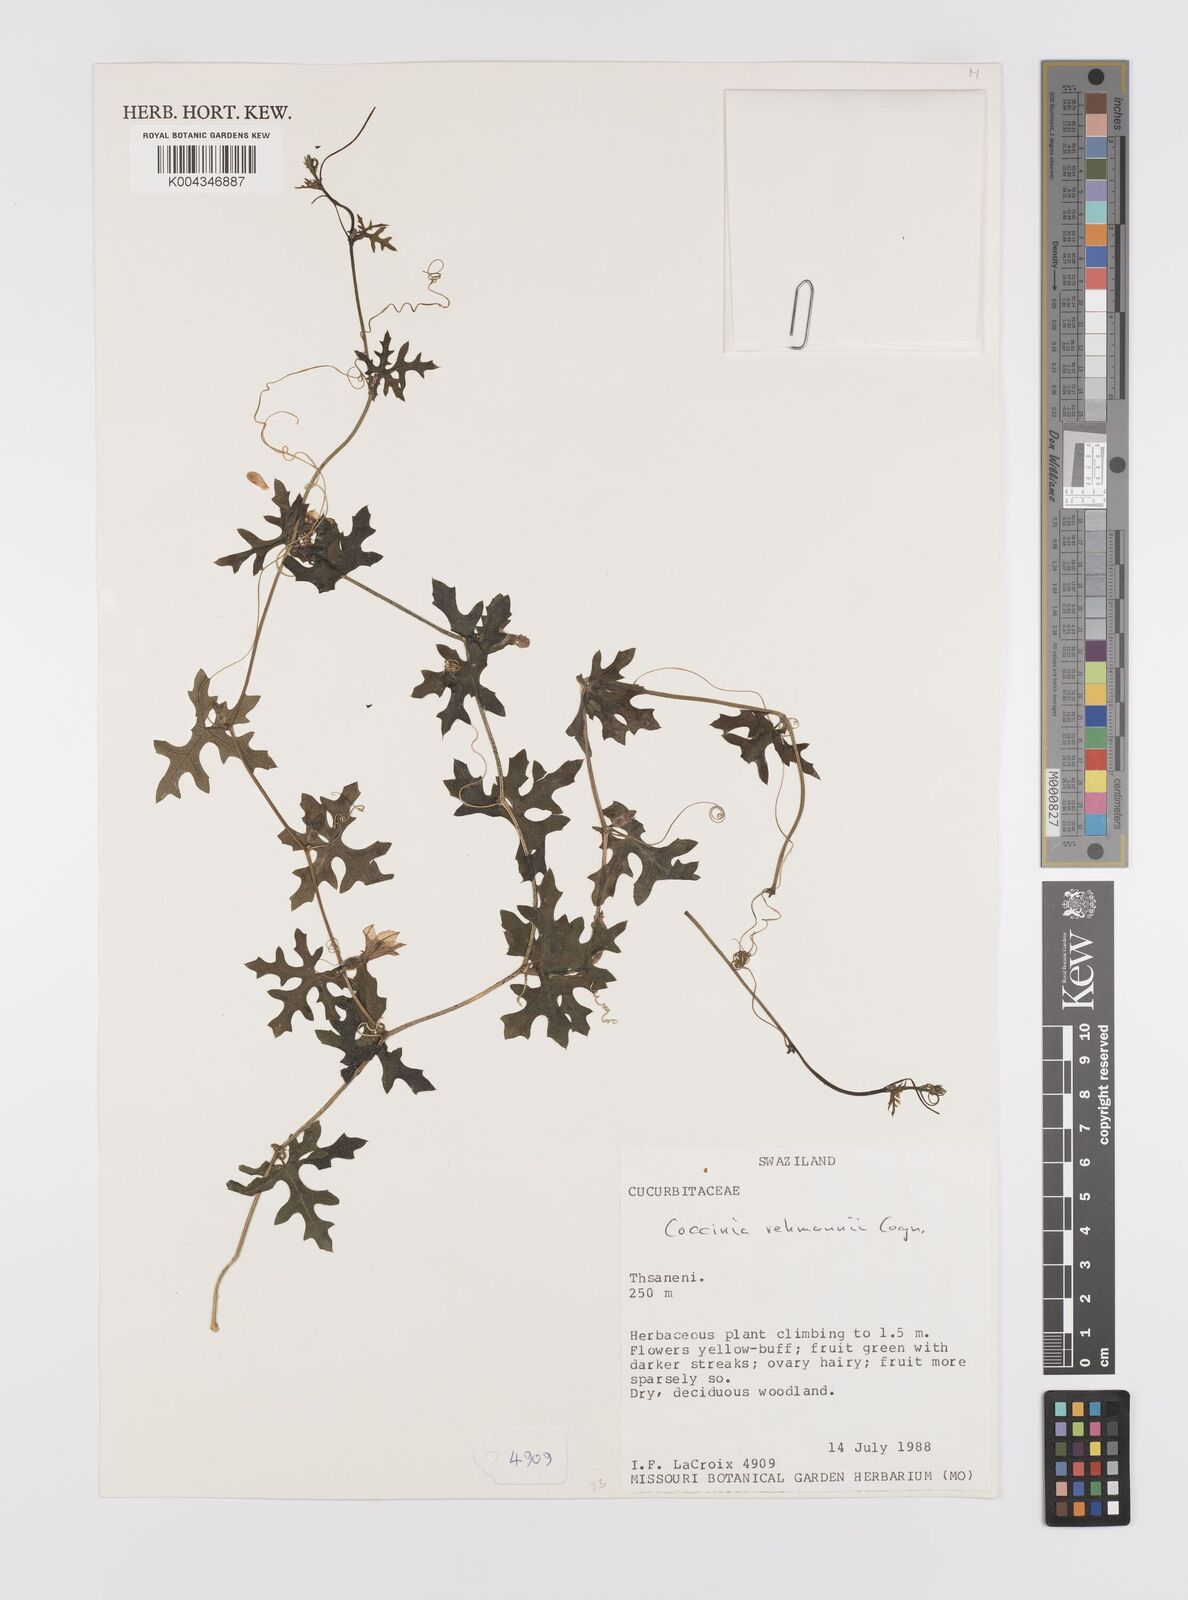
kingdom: Plantae
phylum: Tracheophyta
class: Magnoliopsida
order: Cucurbitales
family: Cucurbitaceae
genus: Coccinia
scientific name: Coccinia rehmannii
